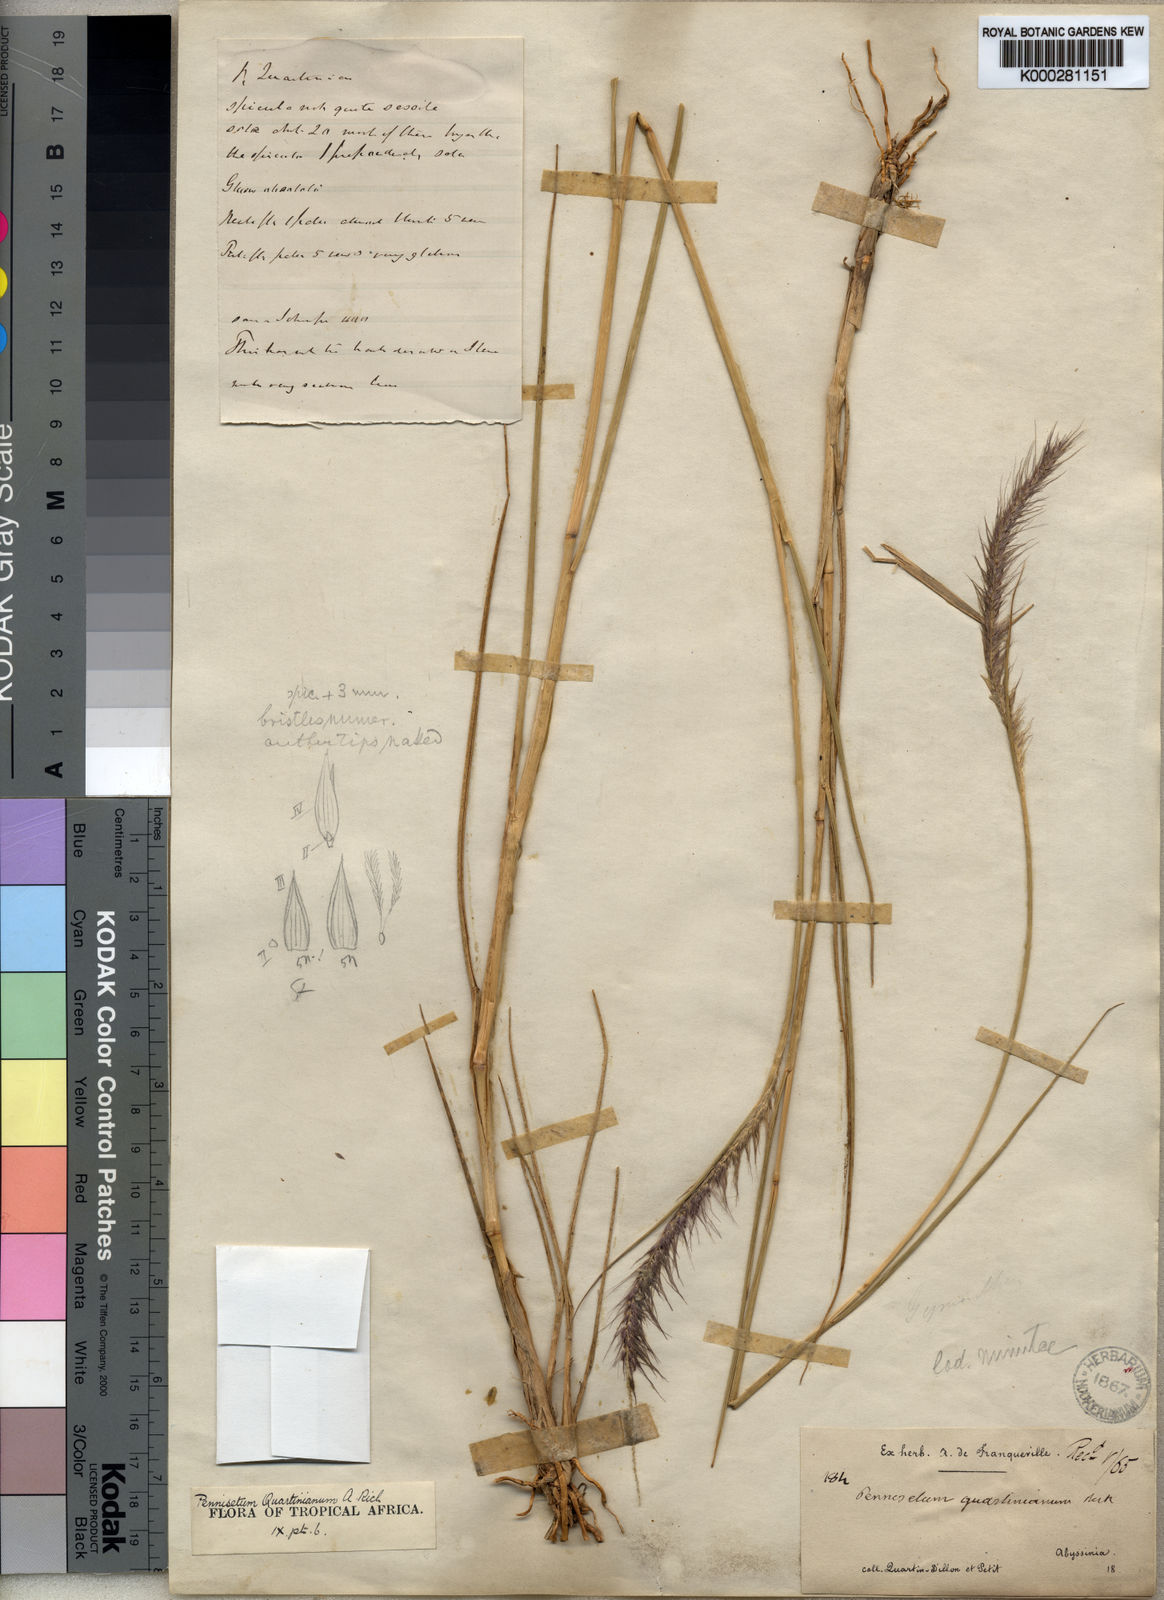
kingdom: Plantae
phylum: Tracheophyta
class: Liliopsida
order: Poales
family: Poaceae
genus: Cenchrus
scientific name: Cenchrus caudatus
